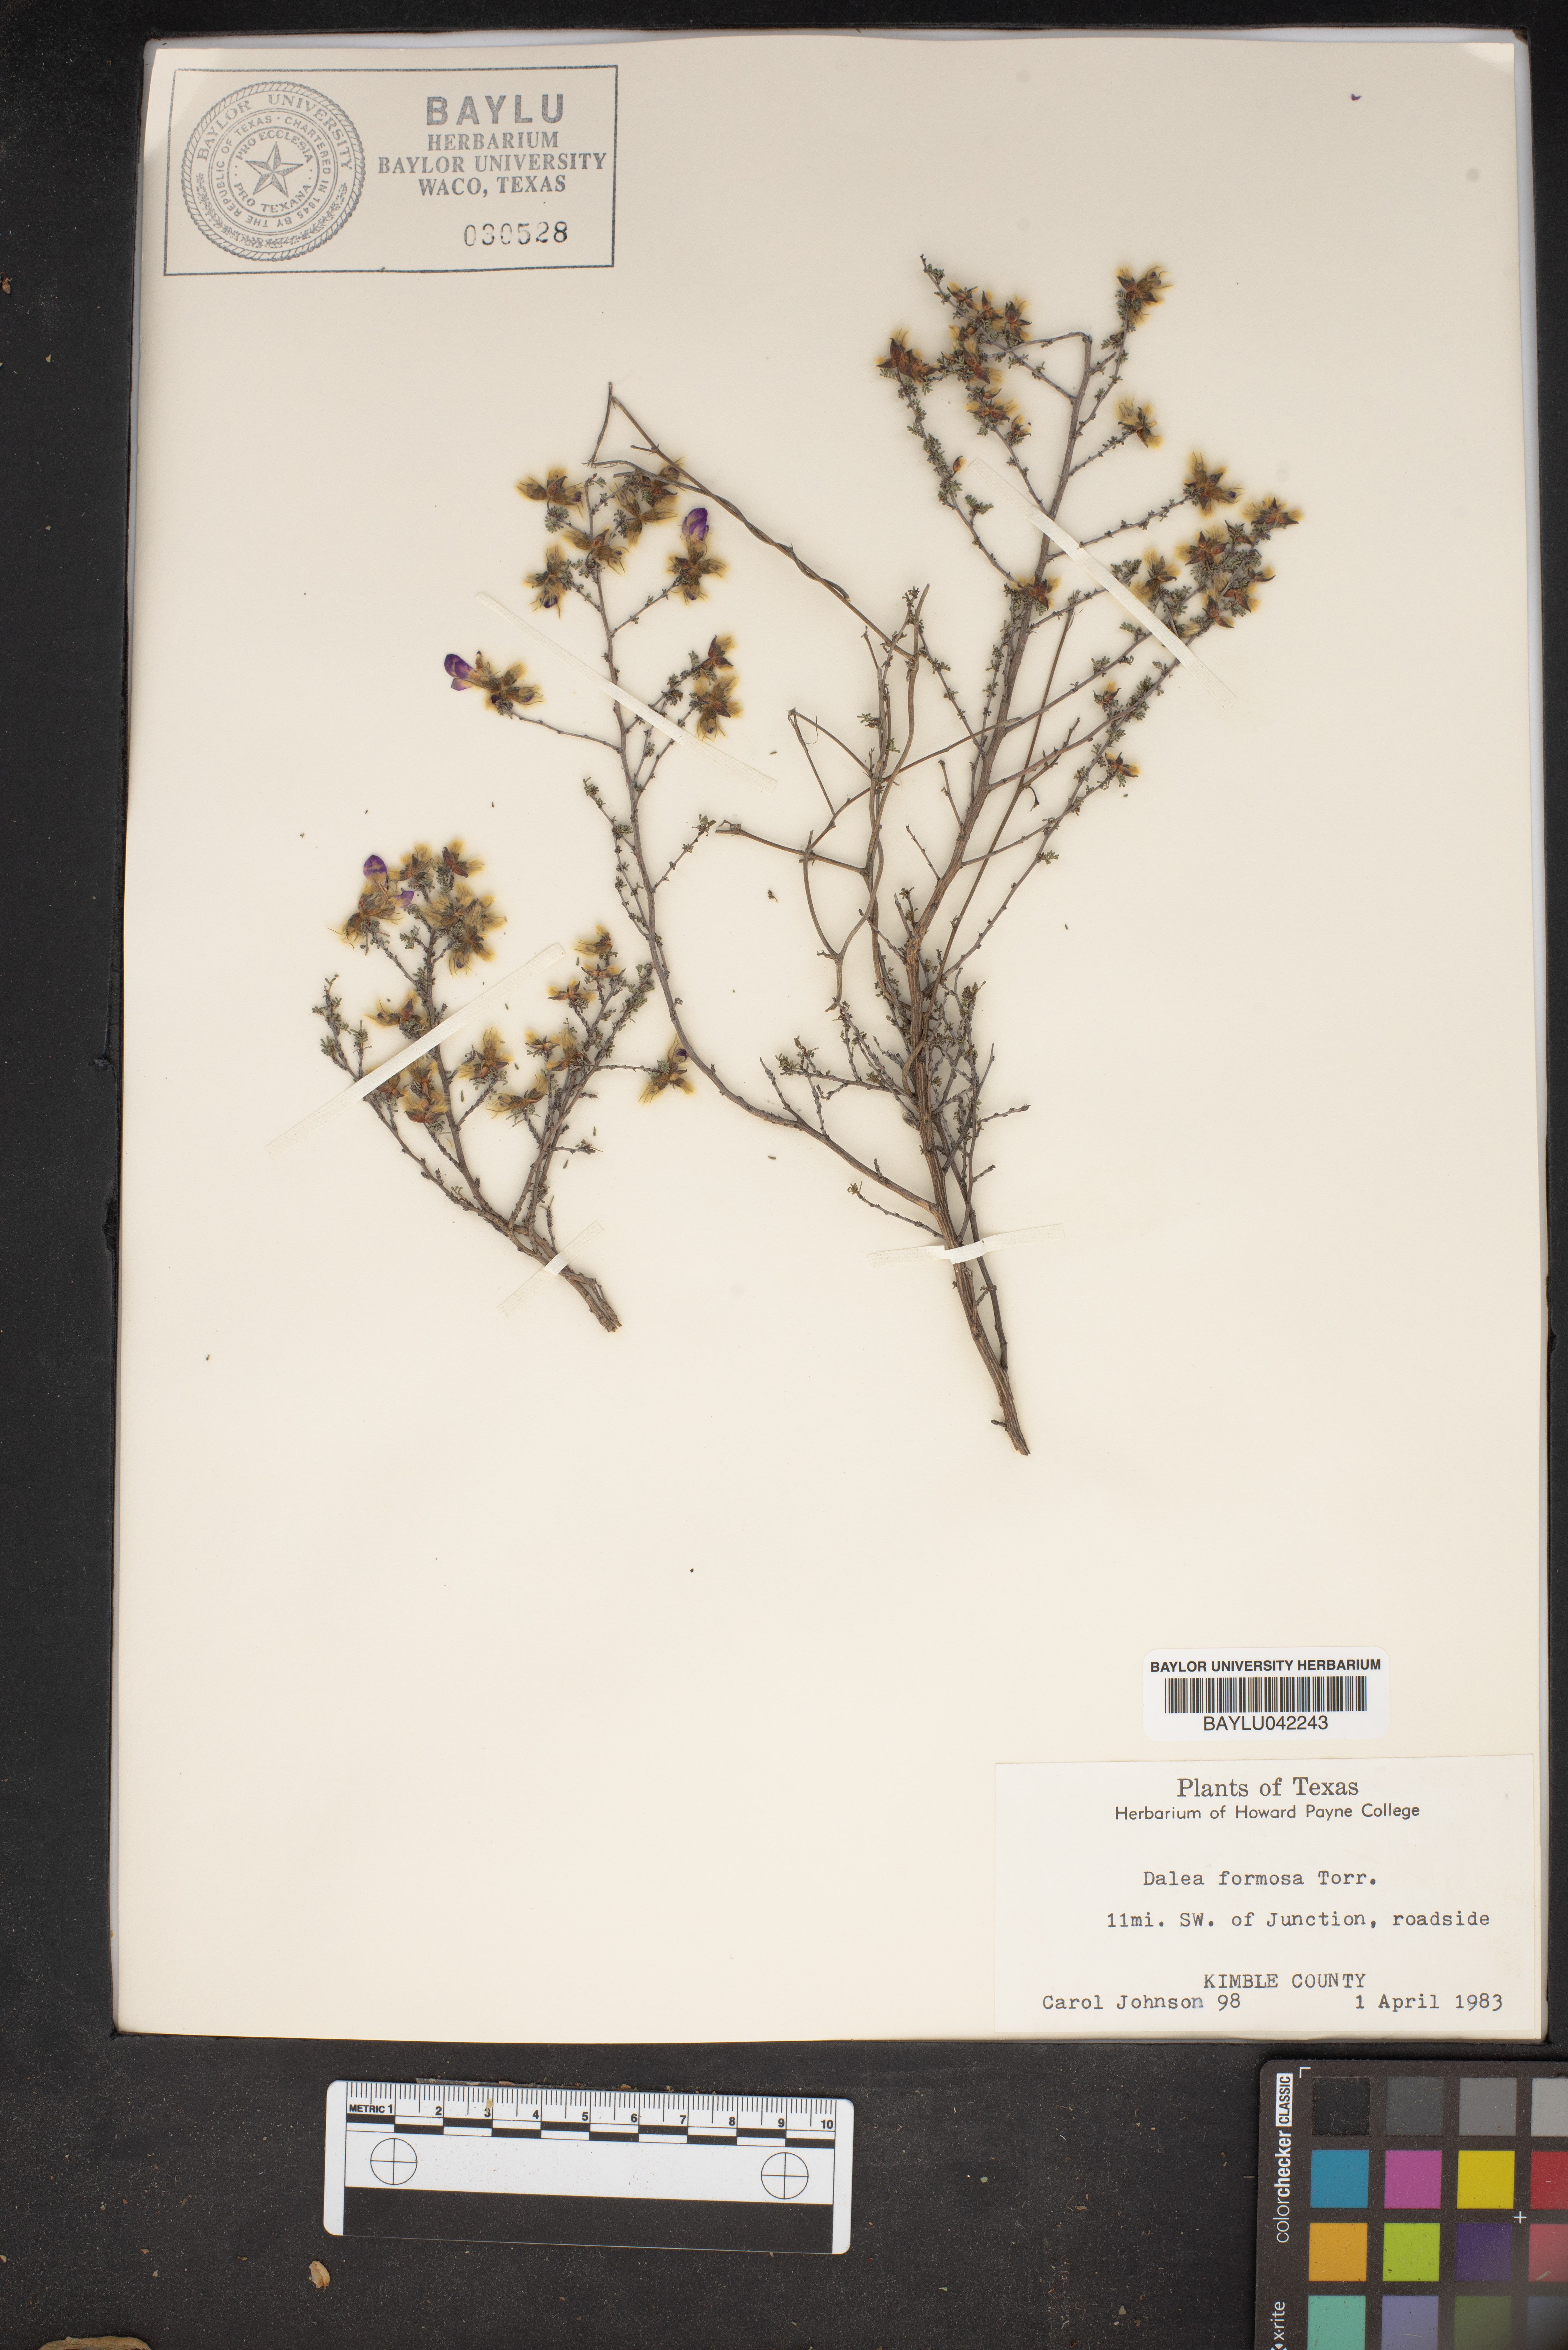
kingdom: Plantae
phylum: Tracheophyta
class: Magnoliopsida
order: Fabales
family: Fabaceae
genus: Dalea
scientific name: Dalea formosa
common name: Feather-plume dalea
